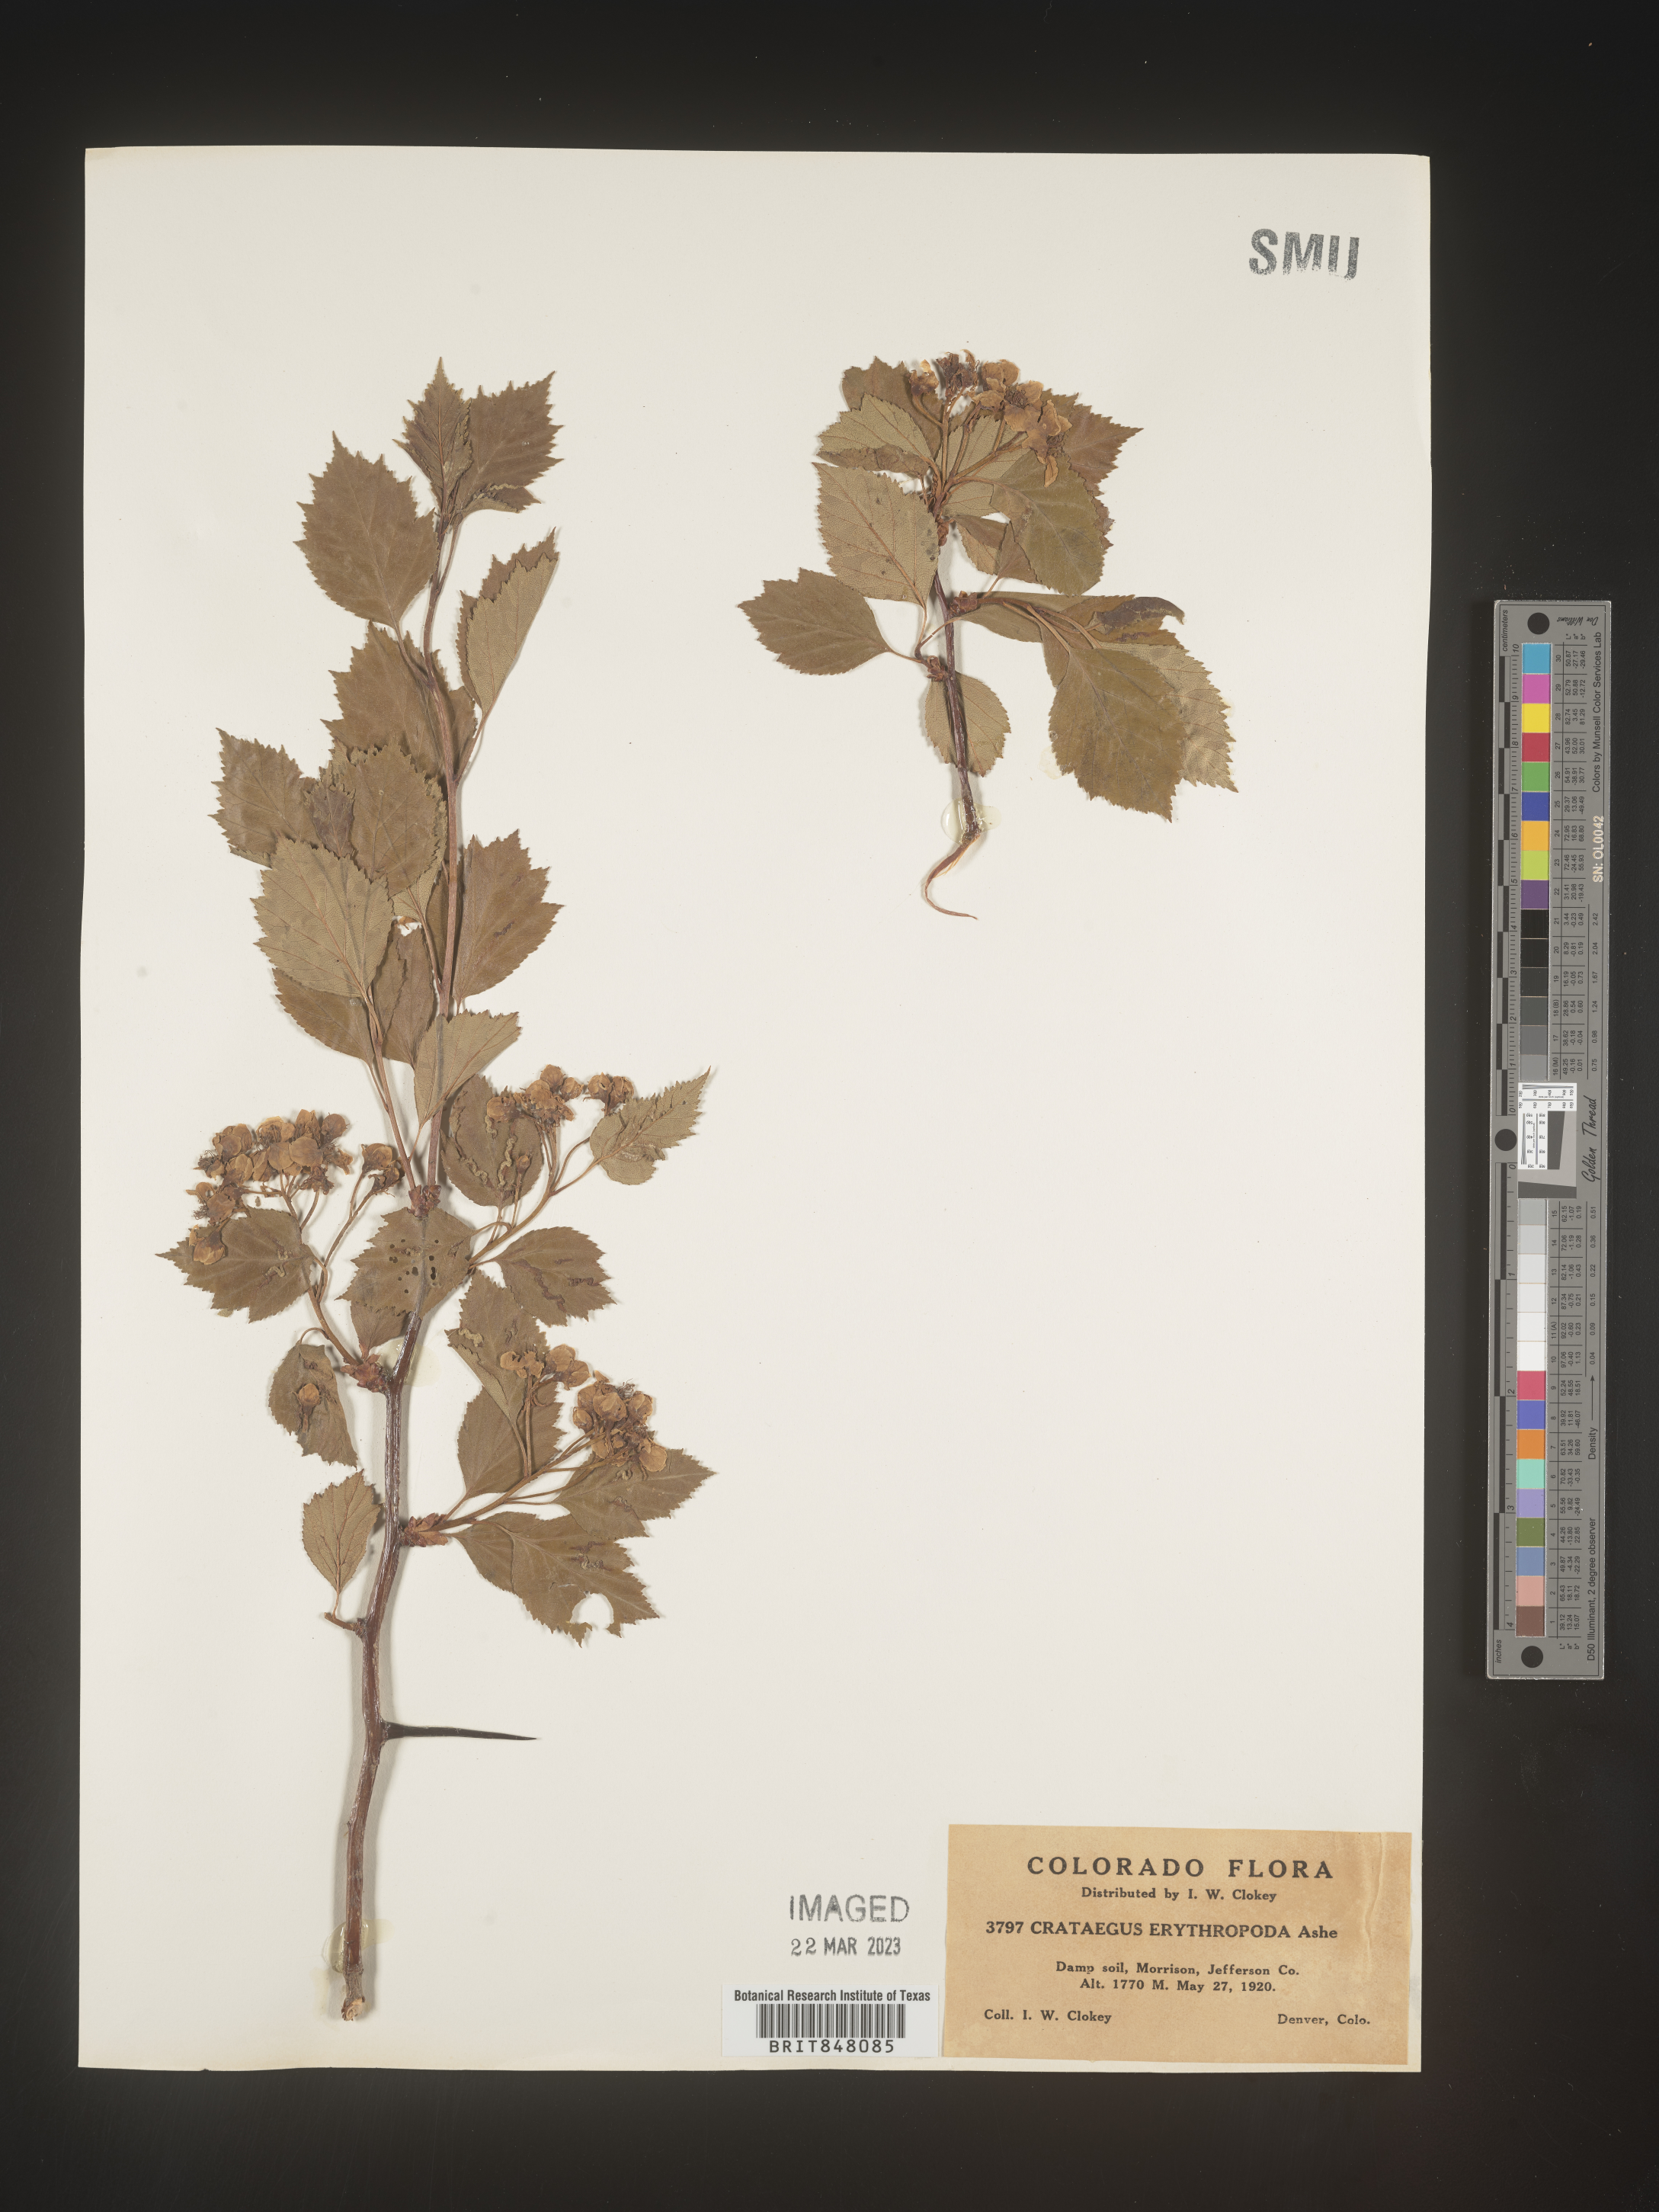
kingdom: Plantae
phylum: Tracheophyta
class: Magnoliopsida
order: Rosales
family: Rosaceae
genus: Crataegus
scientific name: Crataegus
